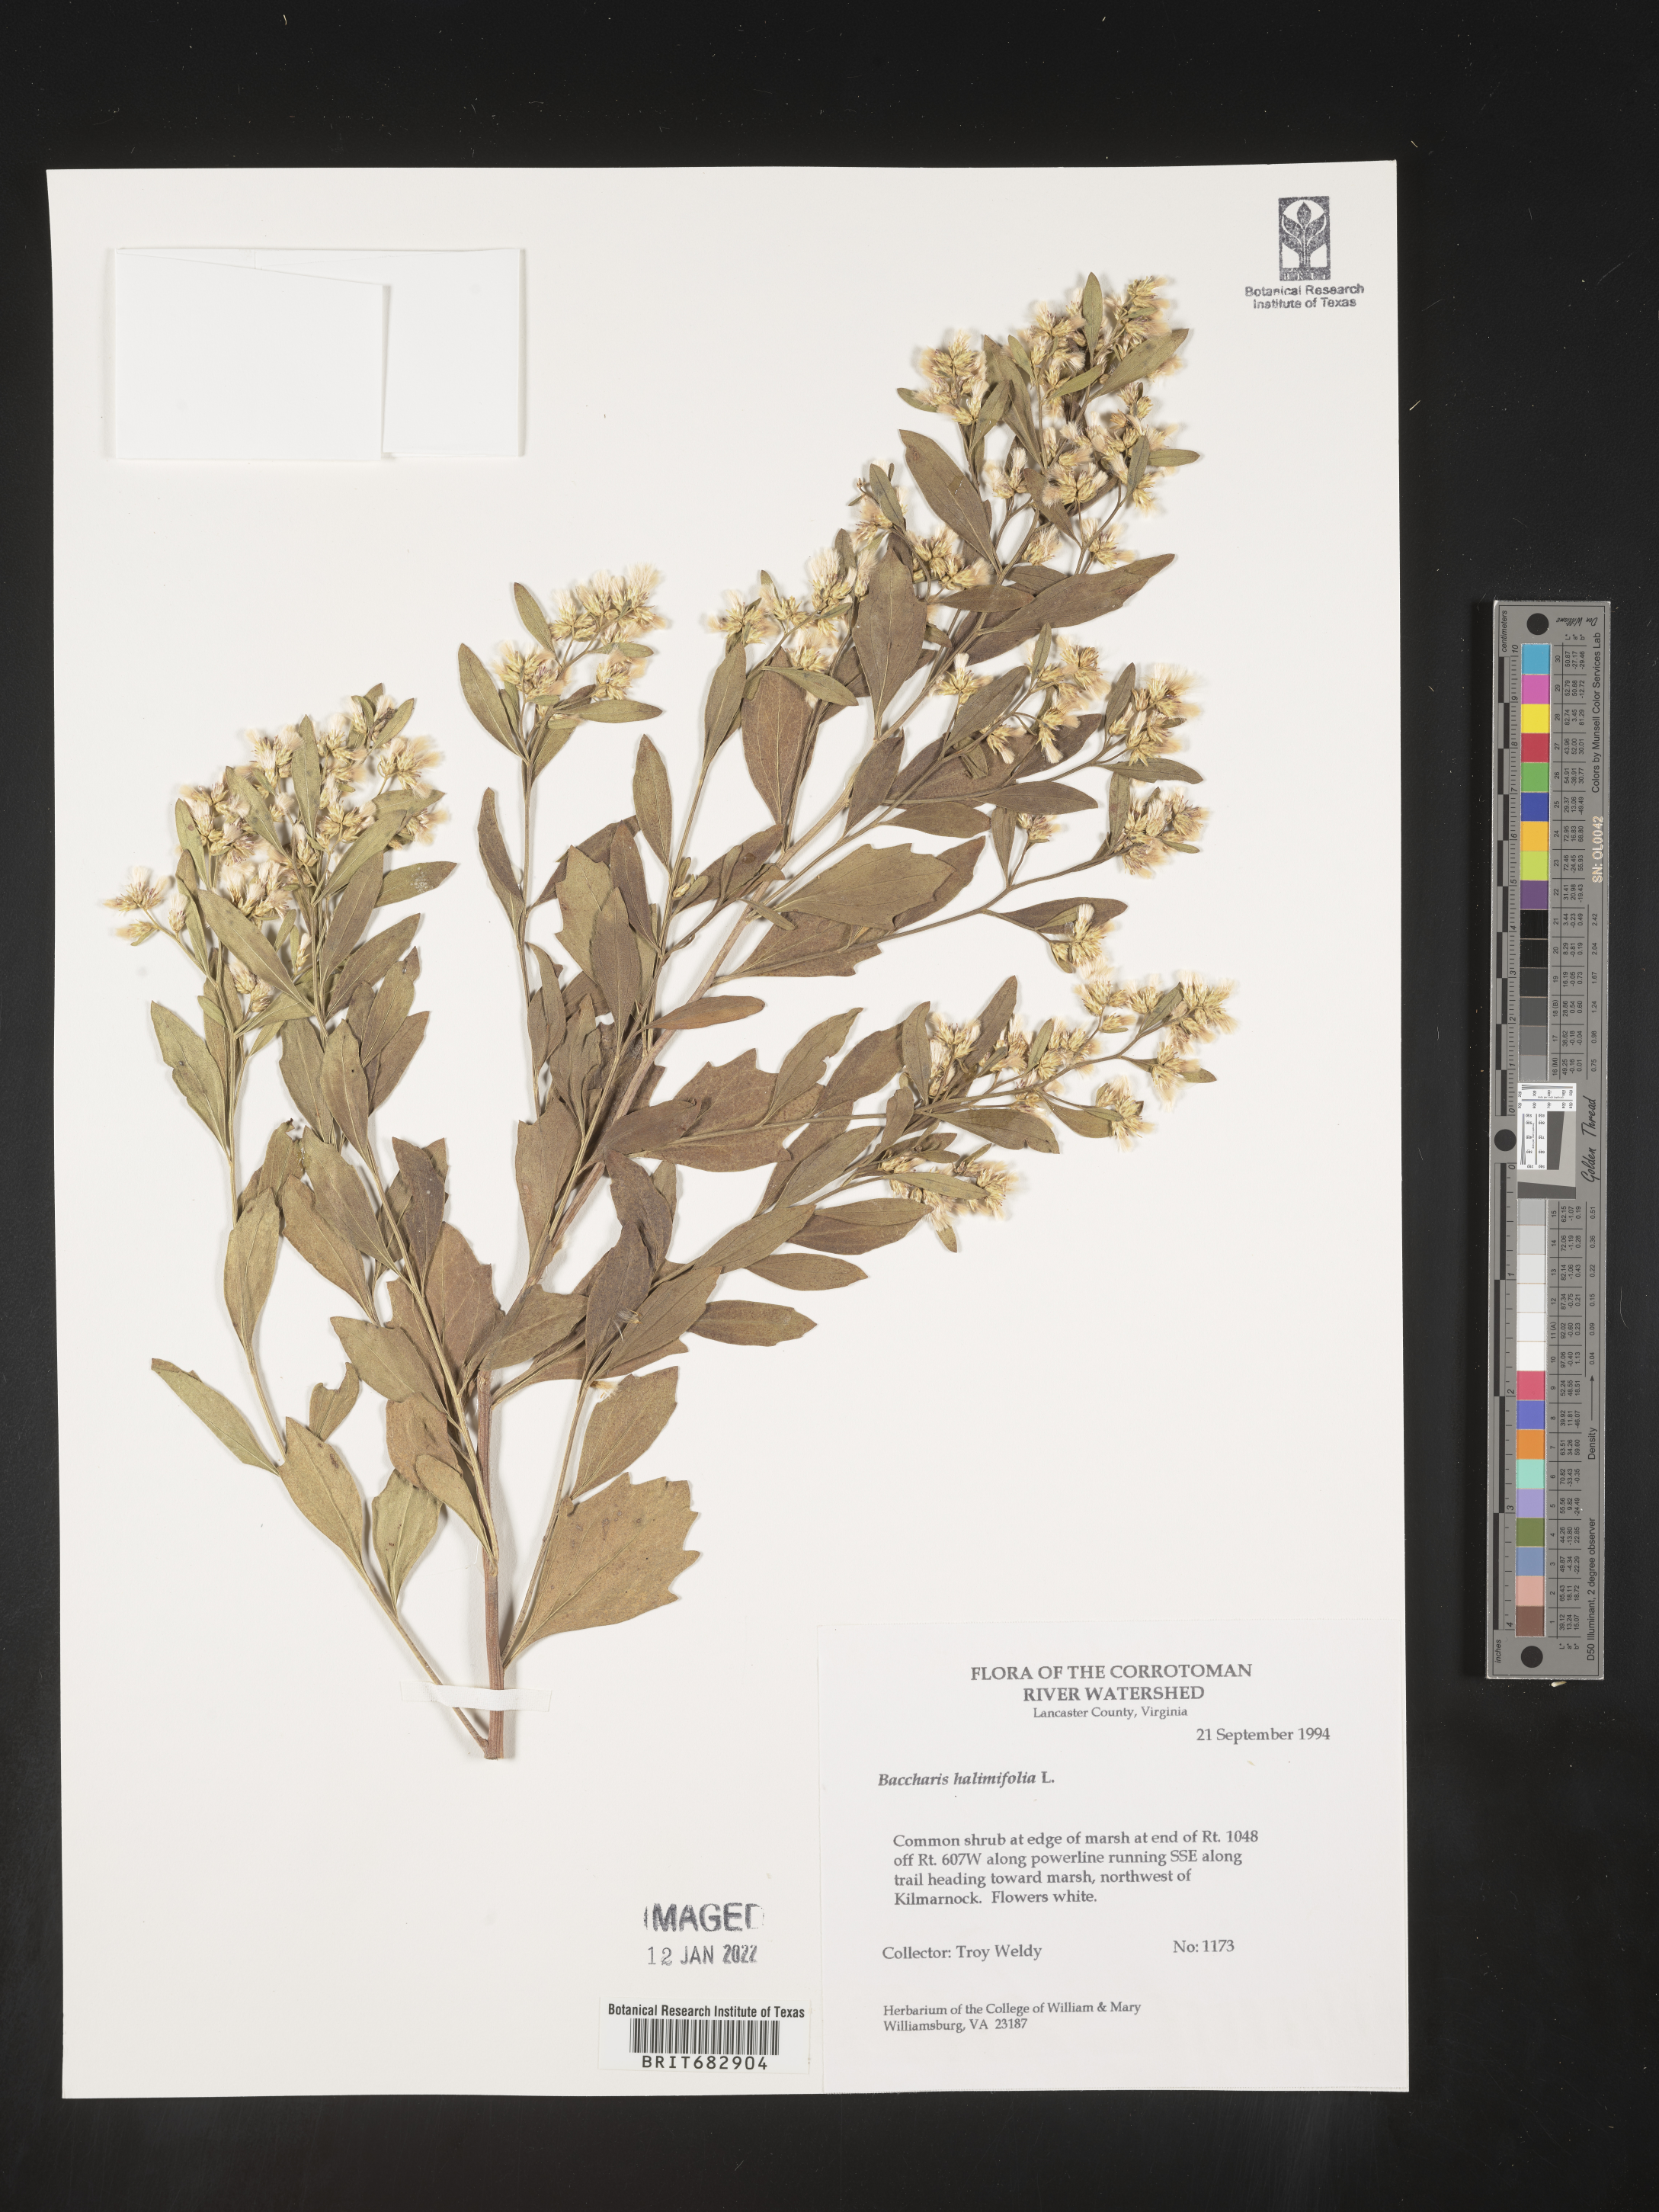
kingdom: Plantae
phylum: Tracheophyta
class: Magnoliopsida
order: Asterales
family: Asteraceae
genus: Nidorella
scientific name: Nidorella ivifolia
